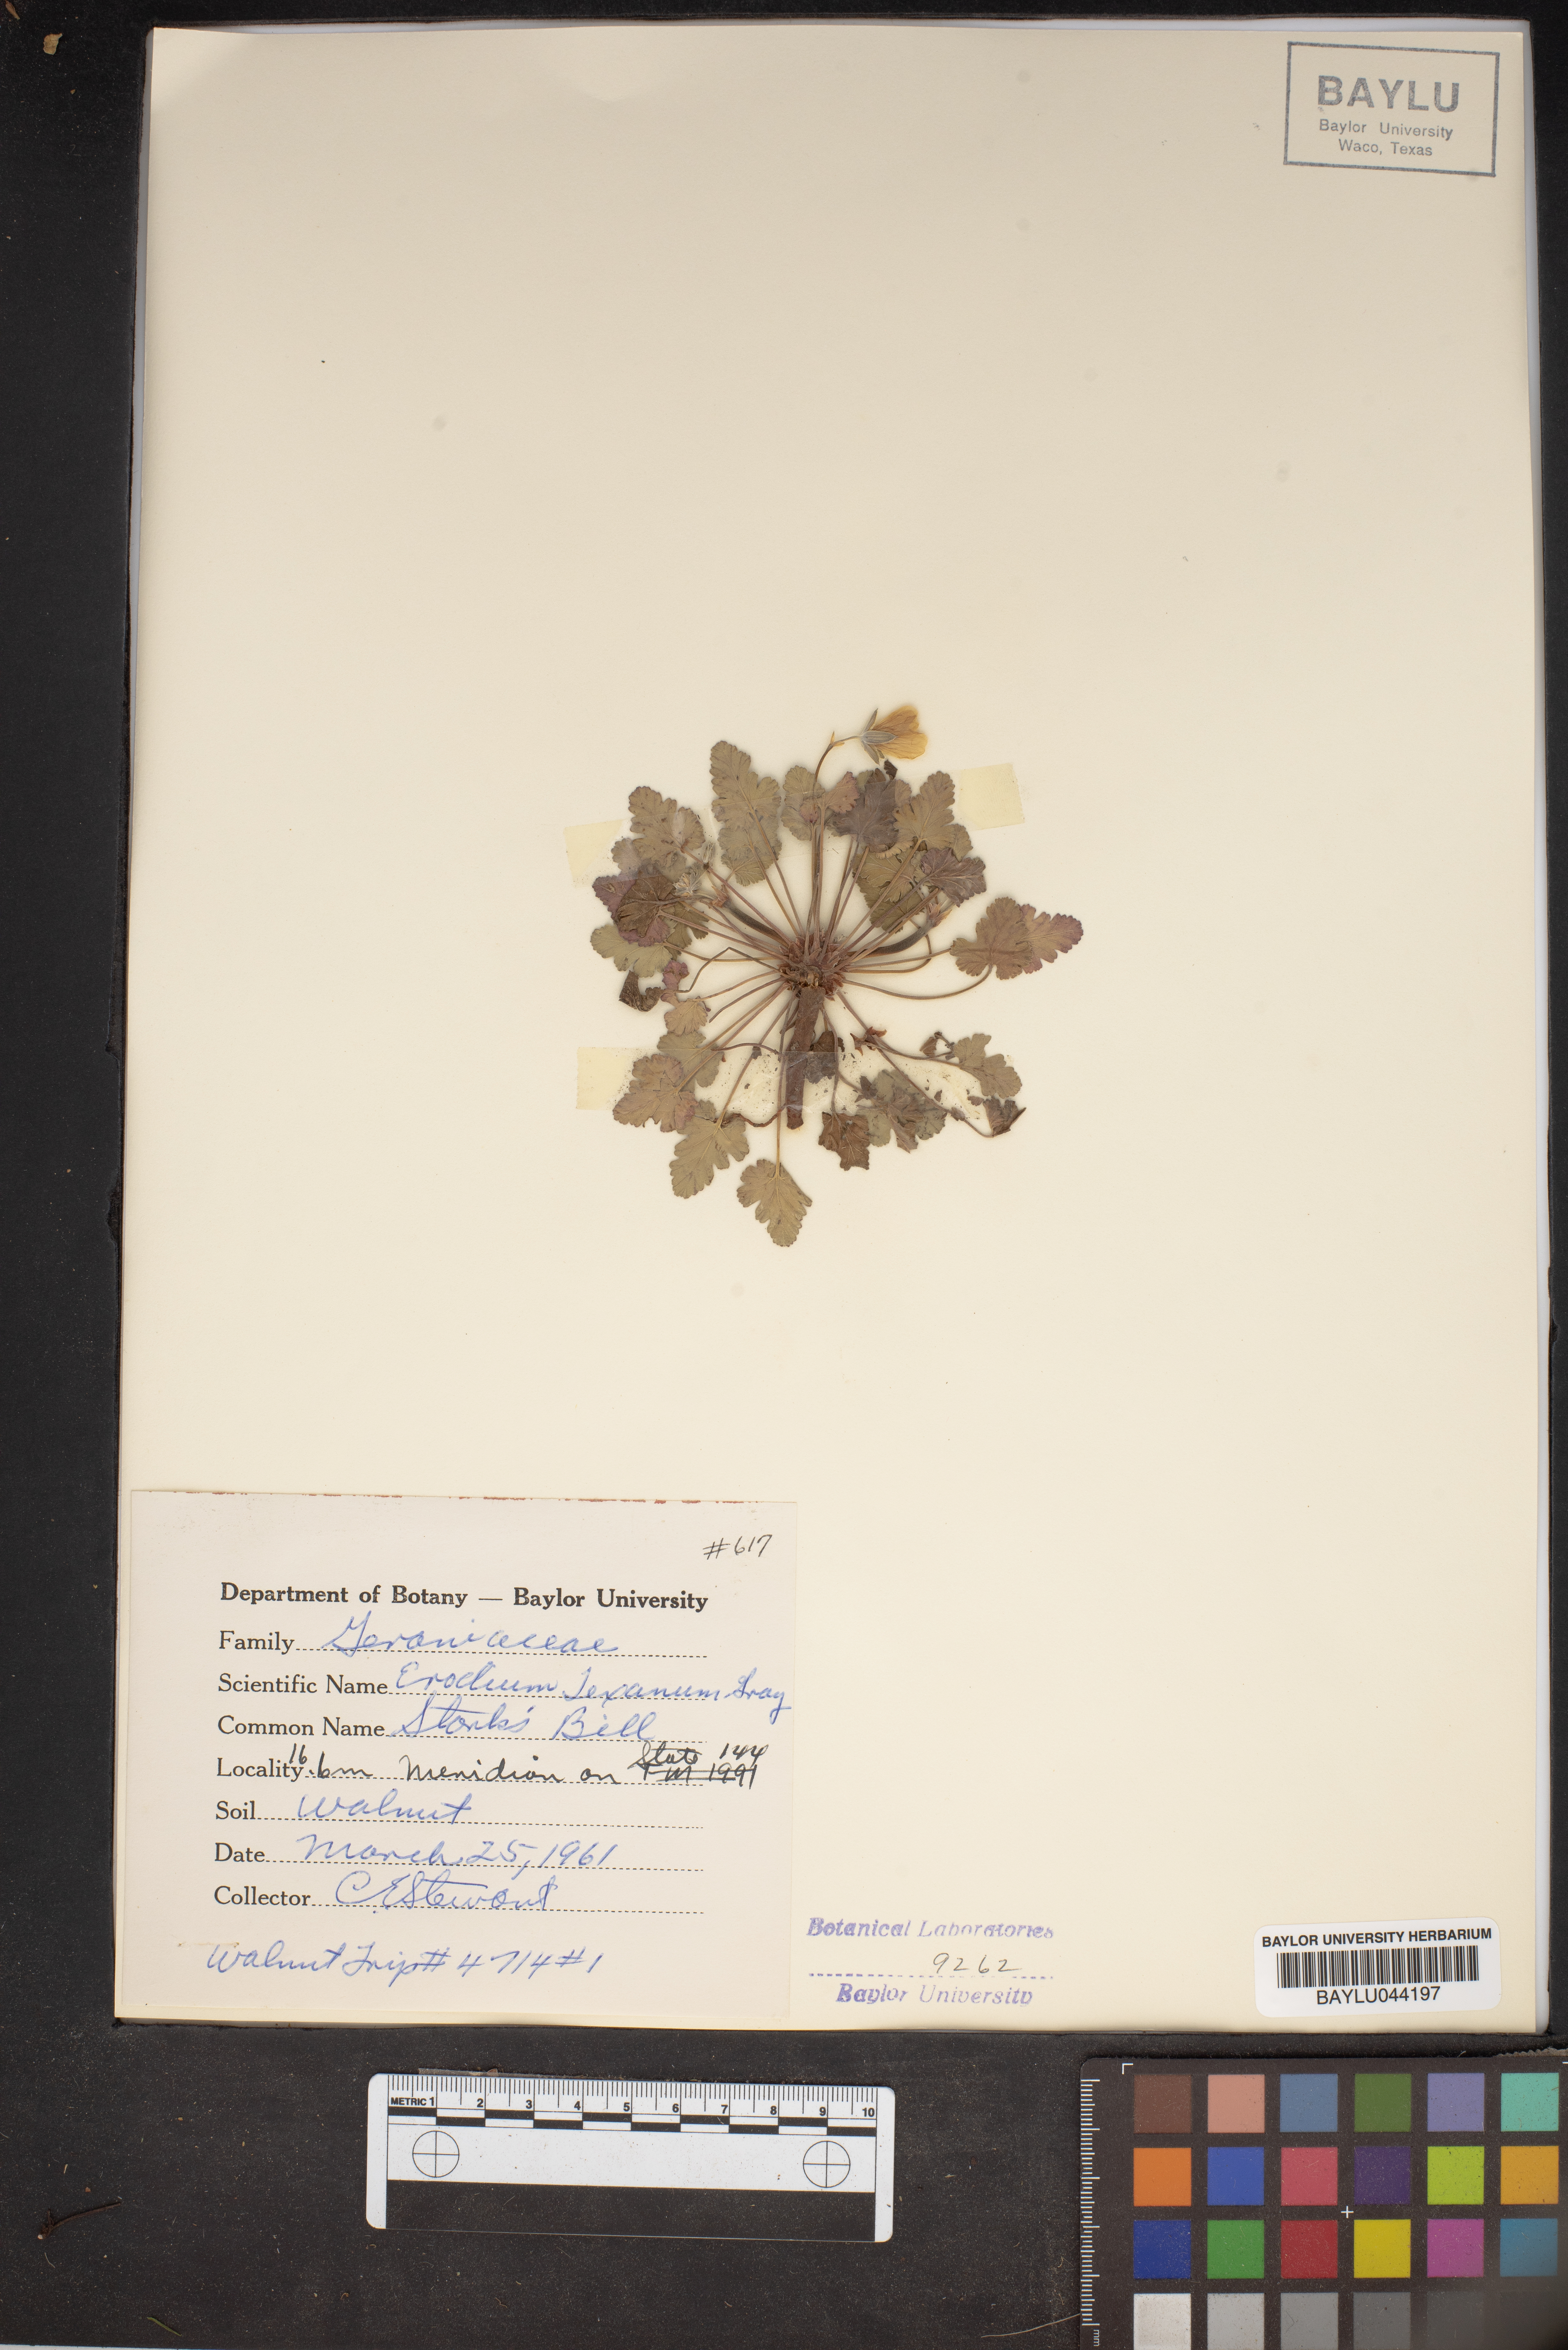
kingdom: Plantae
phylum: Tracheophyta
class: Magnoliopsida
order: Geraniales
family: Geraniaceae
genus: Erodium
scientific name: Erodium texanum
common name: Texas stork's-bill
